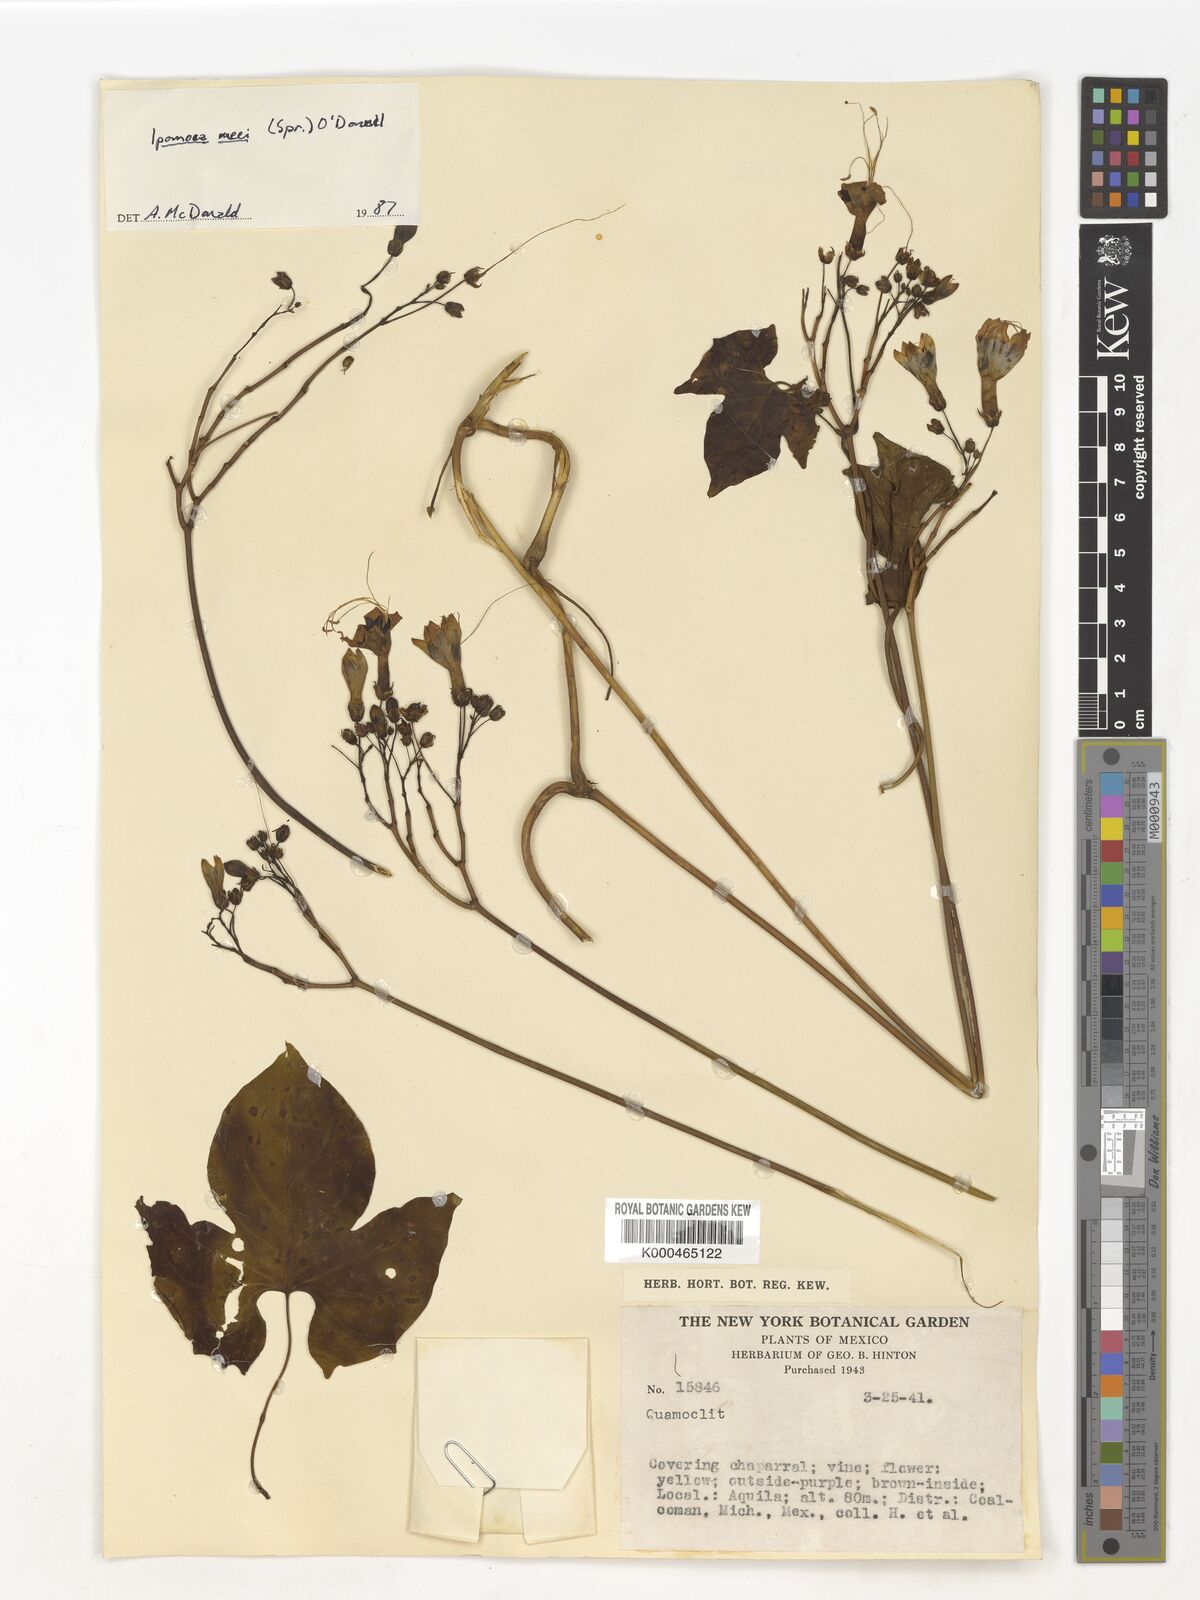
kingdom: Plantae
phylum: Tracheophyta
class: Magnoliopsida
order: Solanales
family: Convolvulaceae
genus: Ipomoea
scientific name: Ipomoea
